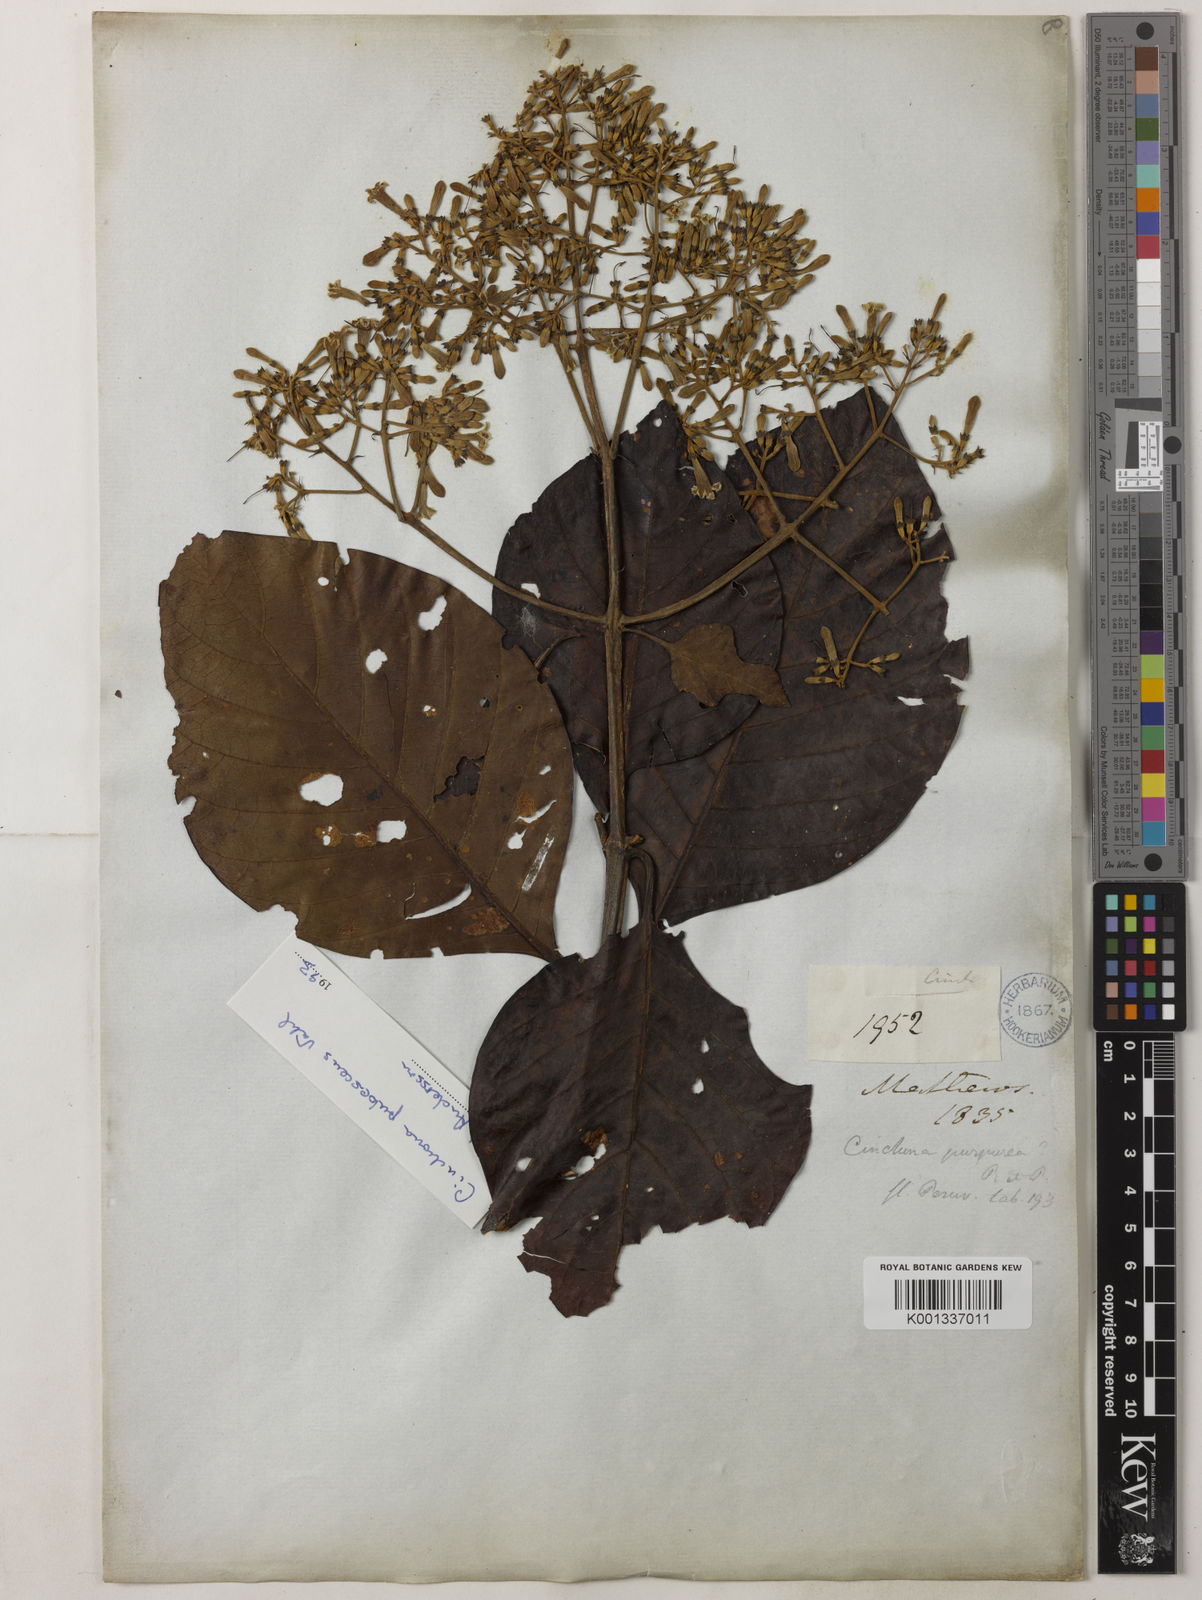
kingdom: Plantae
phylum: Tracheophyta
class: Magnoliopsida
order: Gentianales
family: Rubiaceae
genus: Cinchona
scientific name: Cinchona pubescens
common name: Quinine
